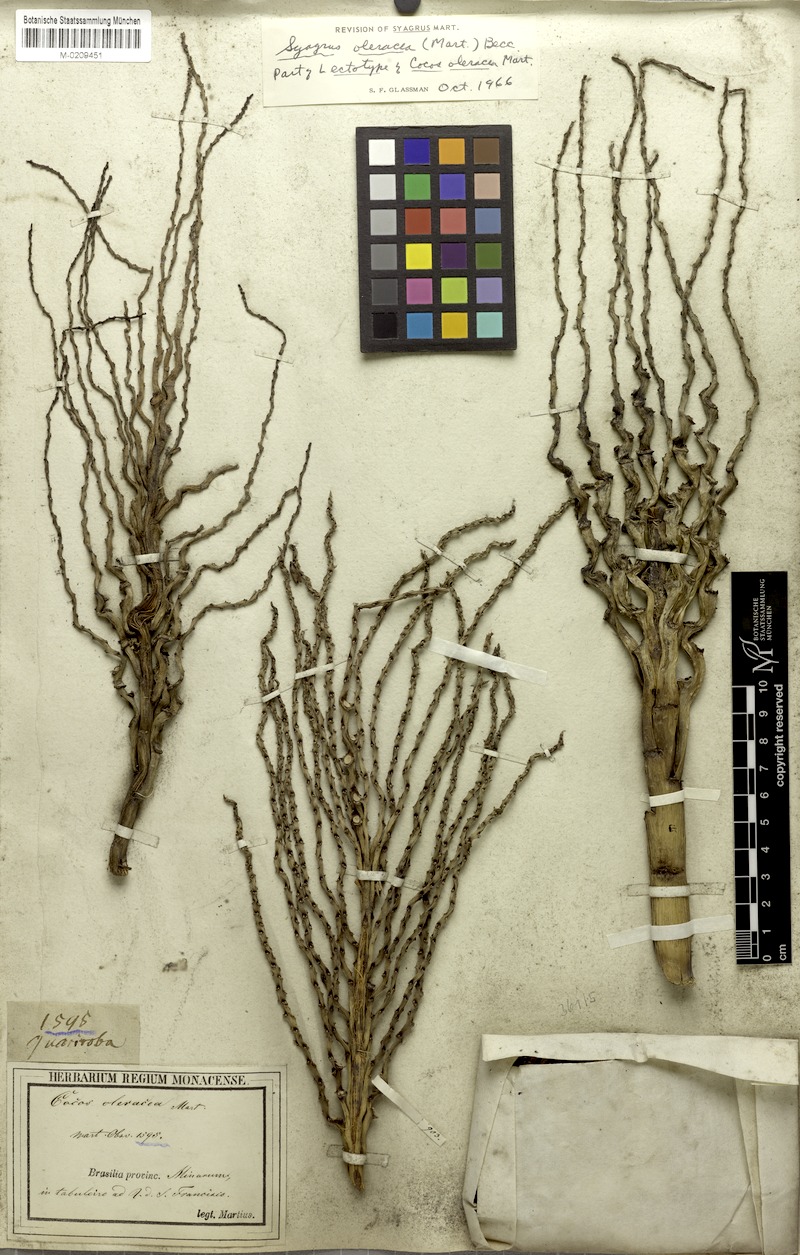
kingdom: Plantae
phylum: Tracheophyta
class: Liliopsida
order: Arecales
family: Arecaceae
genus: Syagrus
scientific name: Syagrus oleracea
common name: Catole palm
